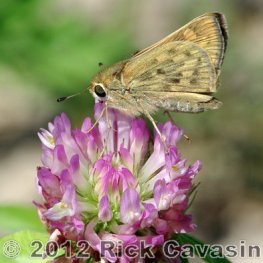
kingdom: Animalia
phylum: Arthropoda
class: Insecta
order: Lepidoptera
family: Hesperiidae
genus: Hylephila
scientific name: Hylephila phyleus
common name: Fiery Skipper
